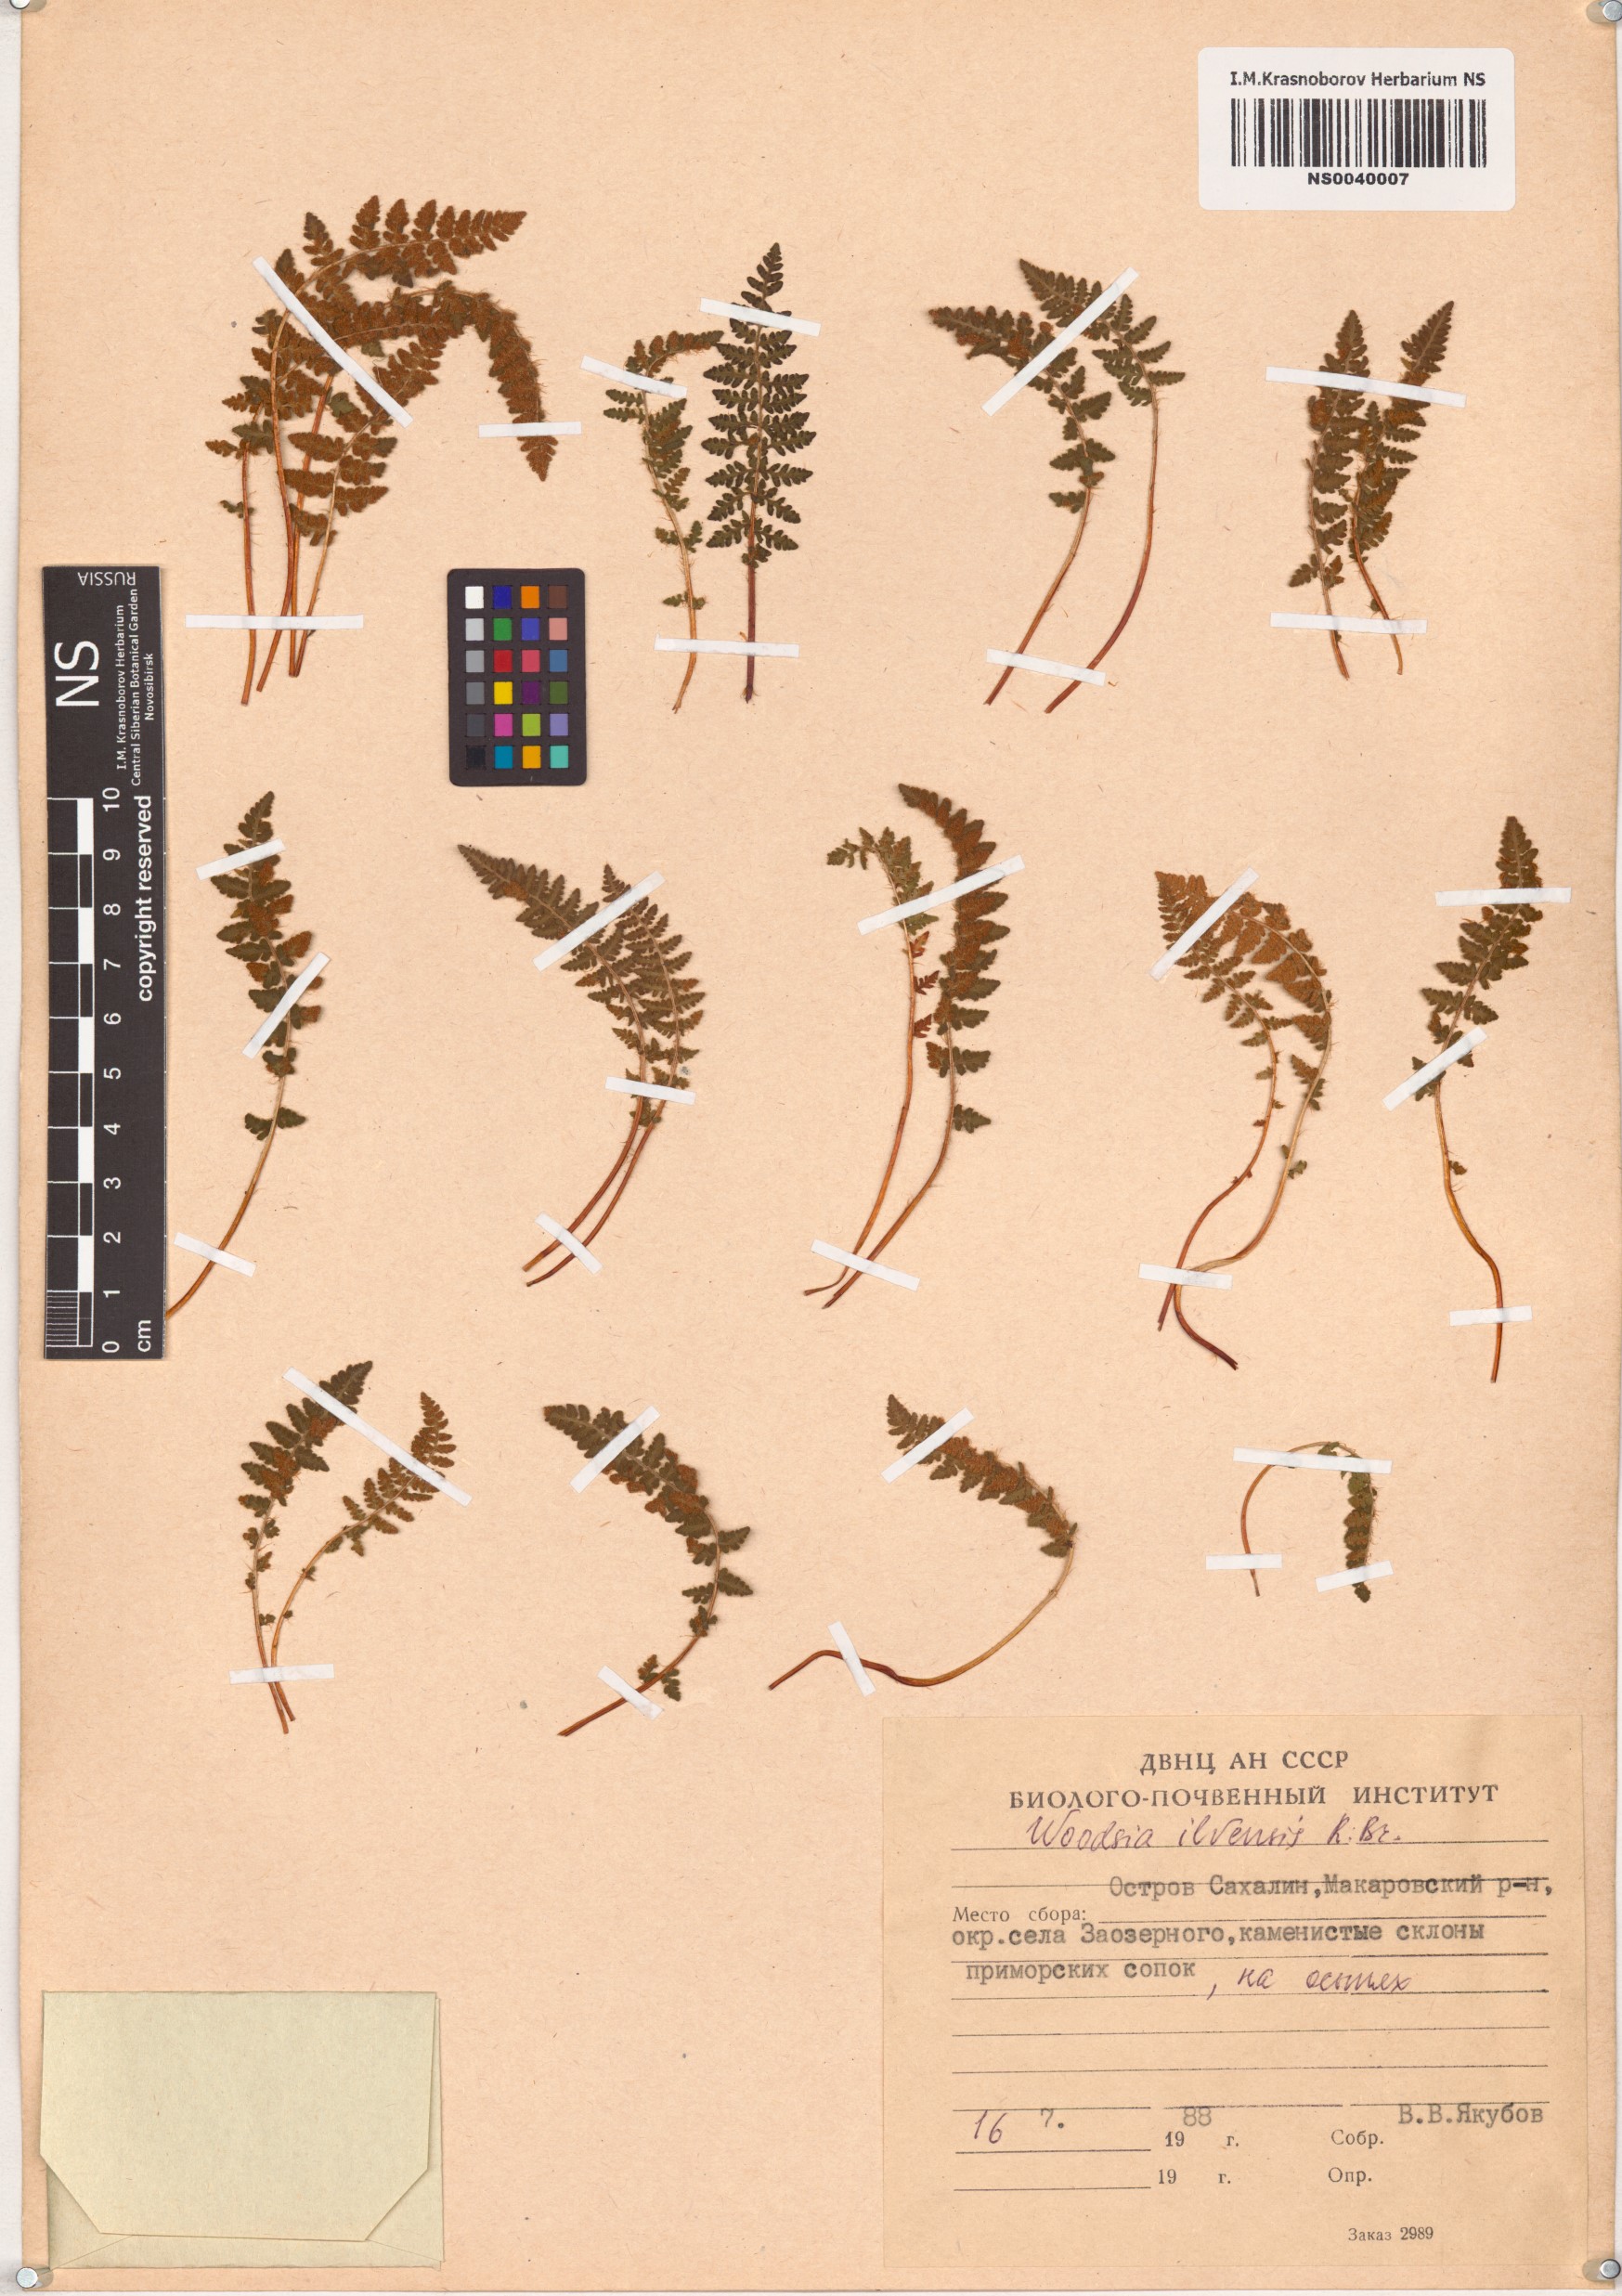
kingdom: Plantae
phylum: Tracheophyta
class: Polypodiopsida
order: Polypodiales
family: Woodsiaceae
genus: Woodsia
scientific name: Woodsia ilvensis
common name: Fragrant woodsia
